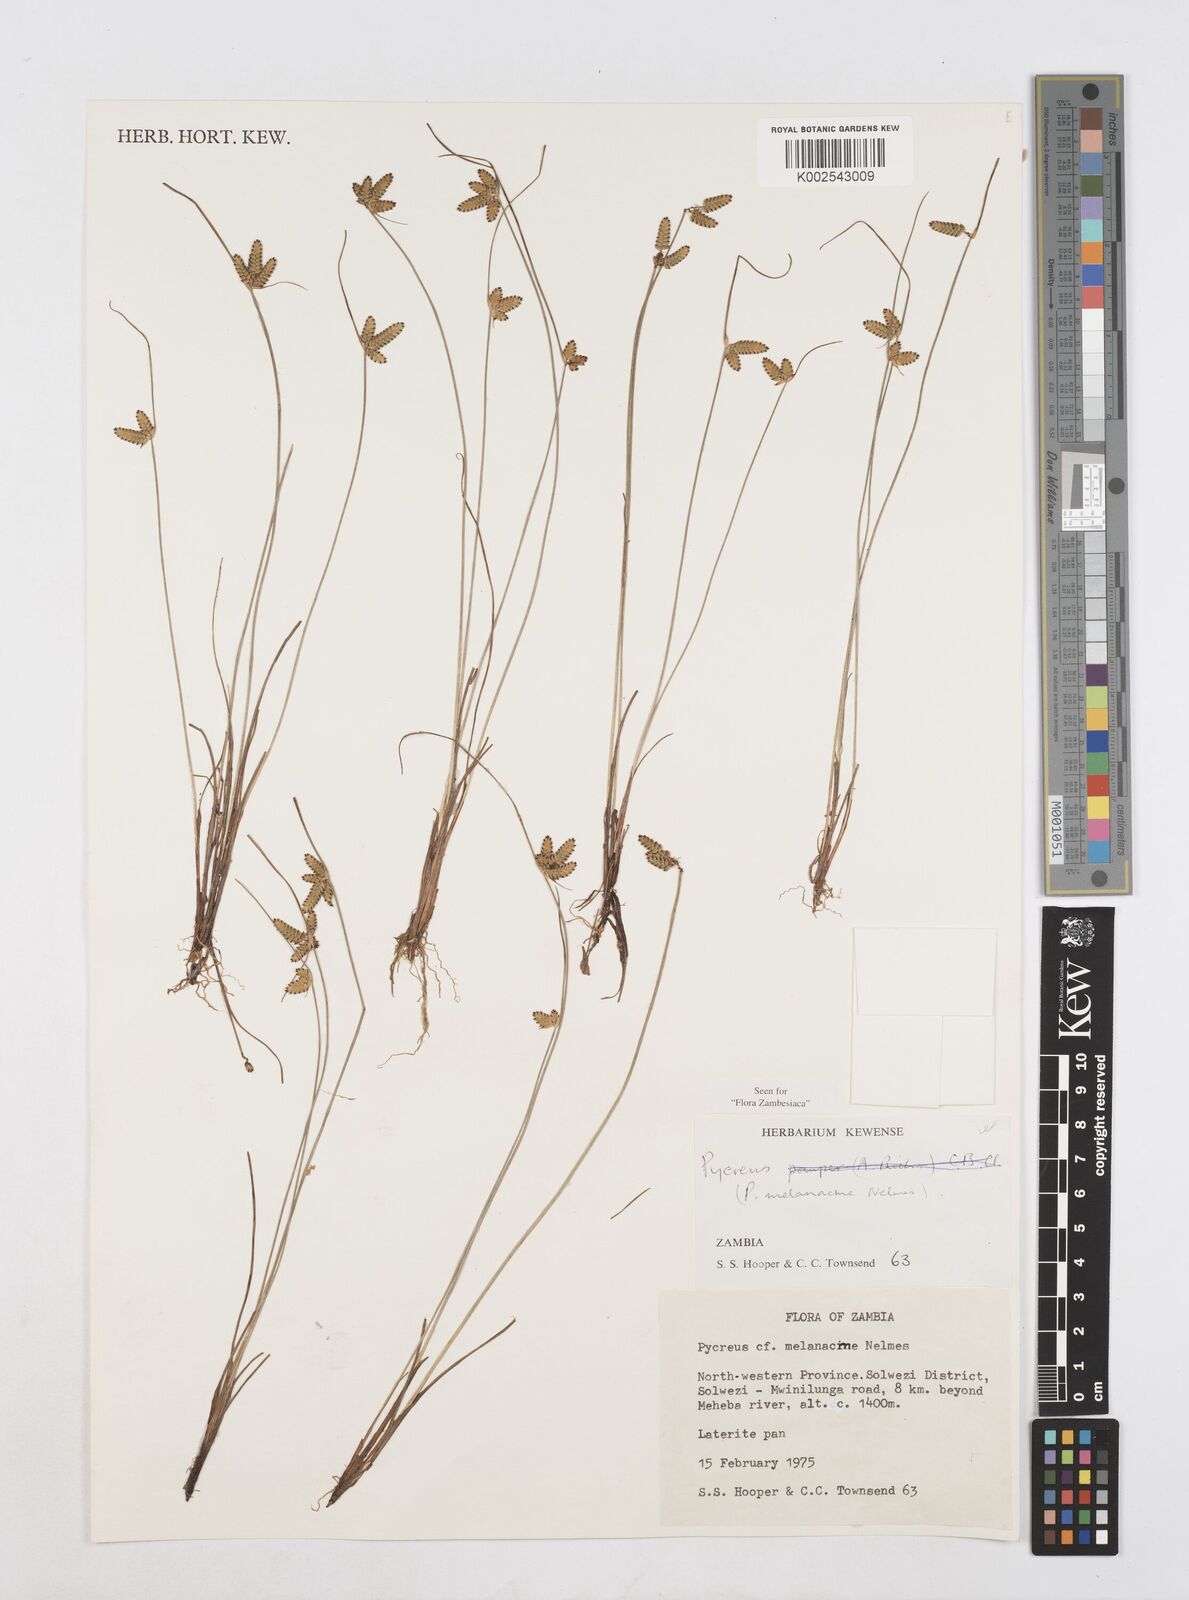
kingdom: Plantae
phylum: Tracheophyta
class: Liliopsida
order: Poales
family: Cyperaceae
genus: Cyperus
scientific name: Cyperus melanacme
